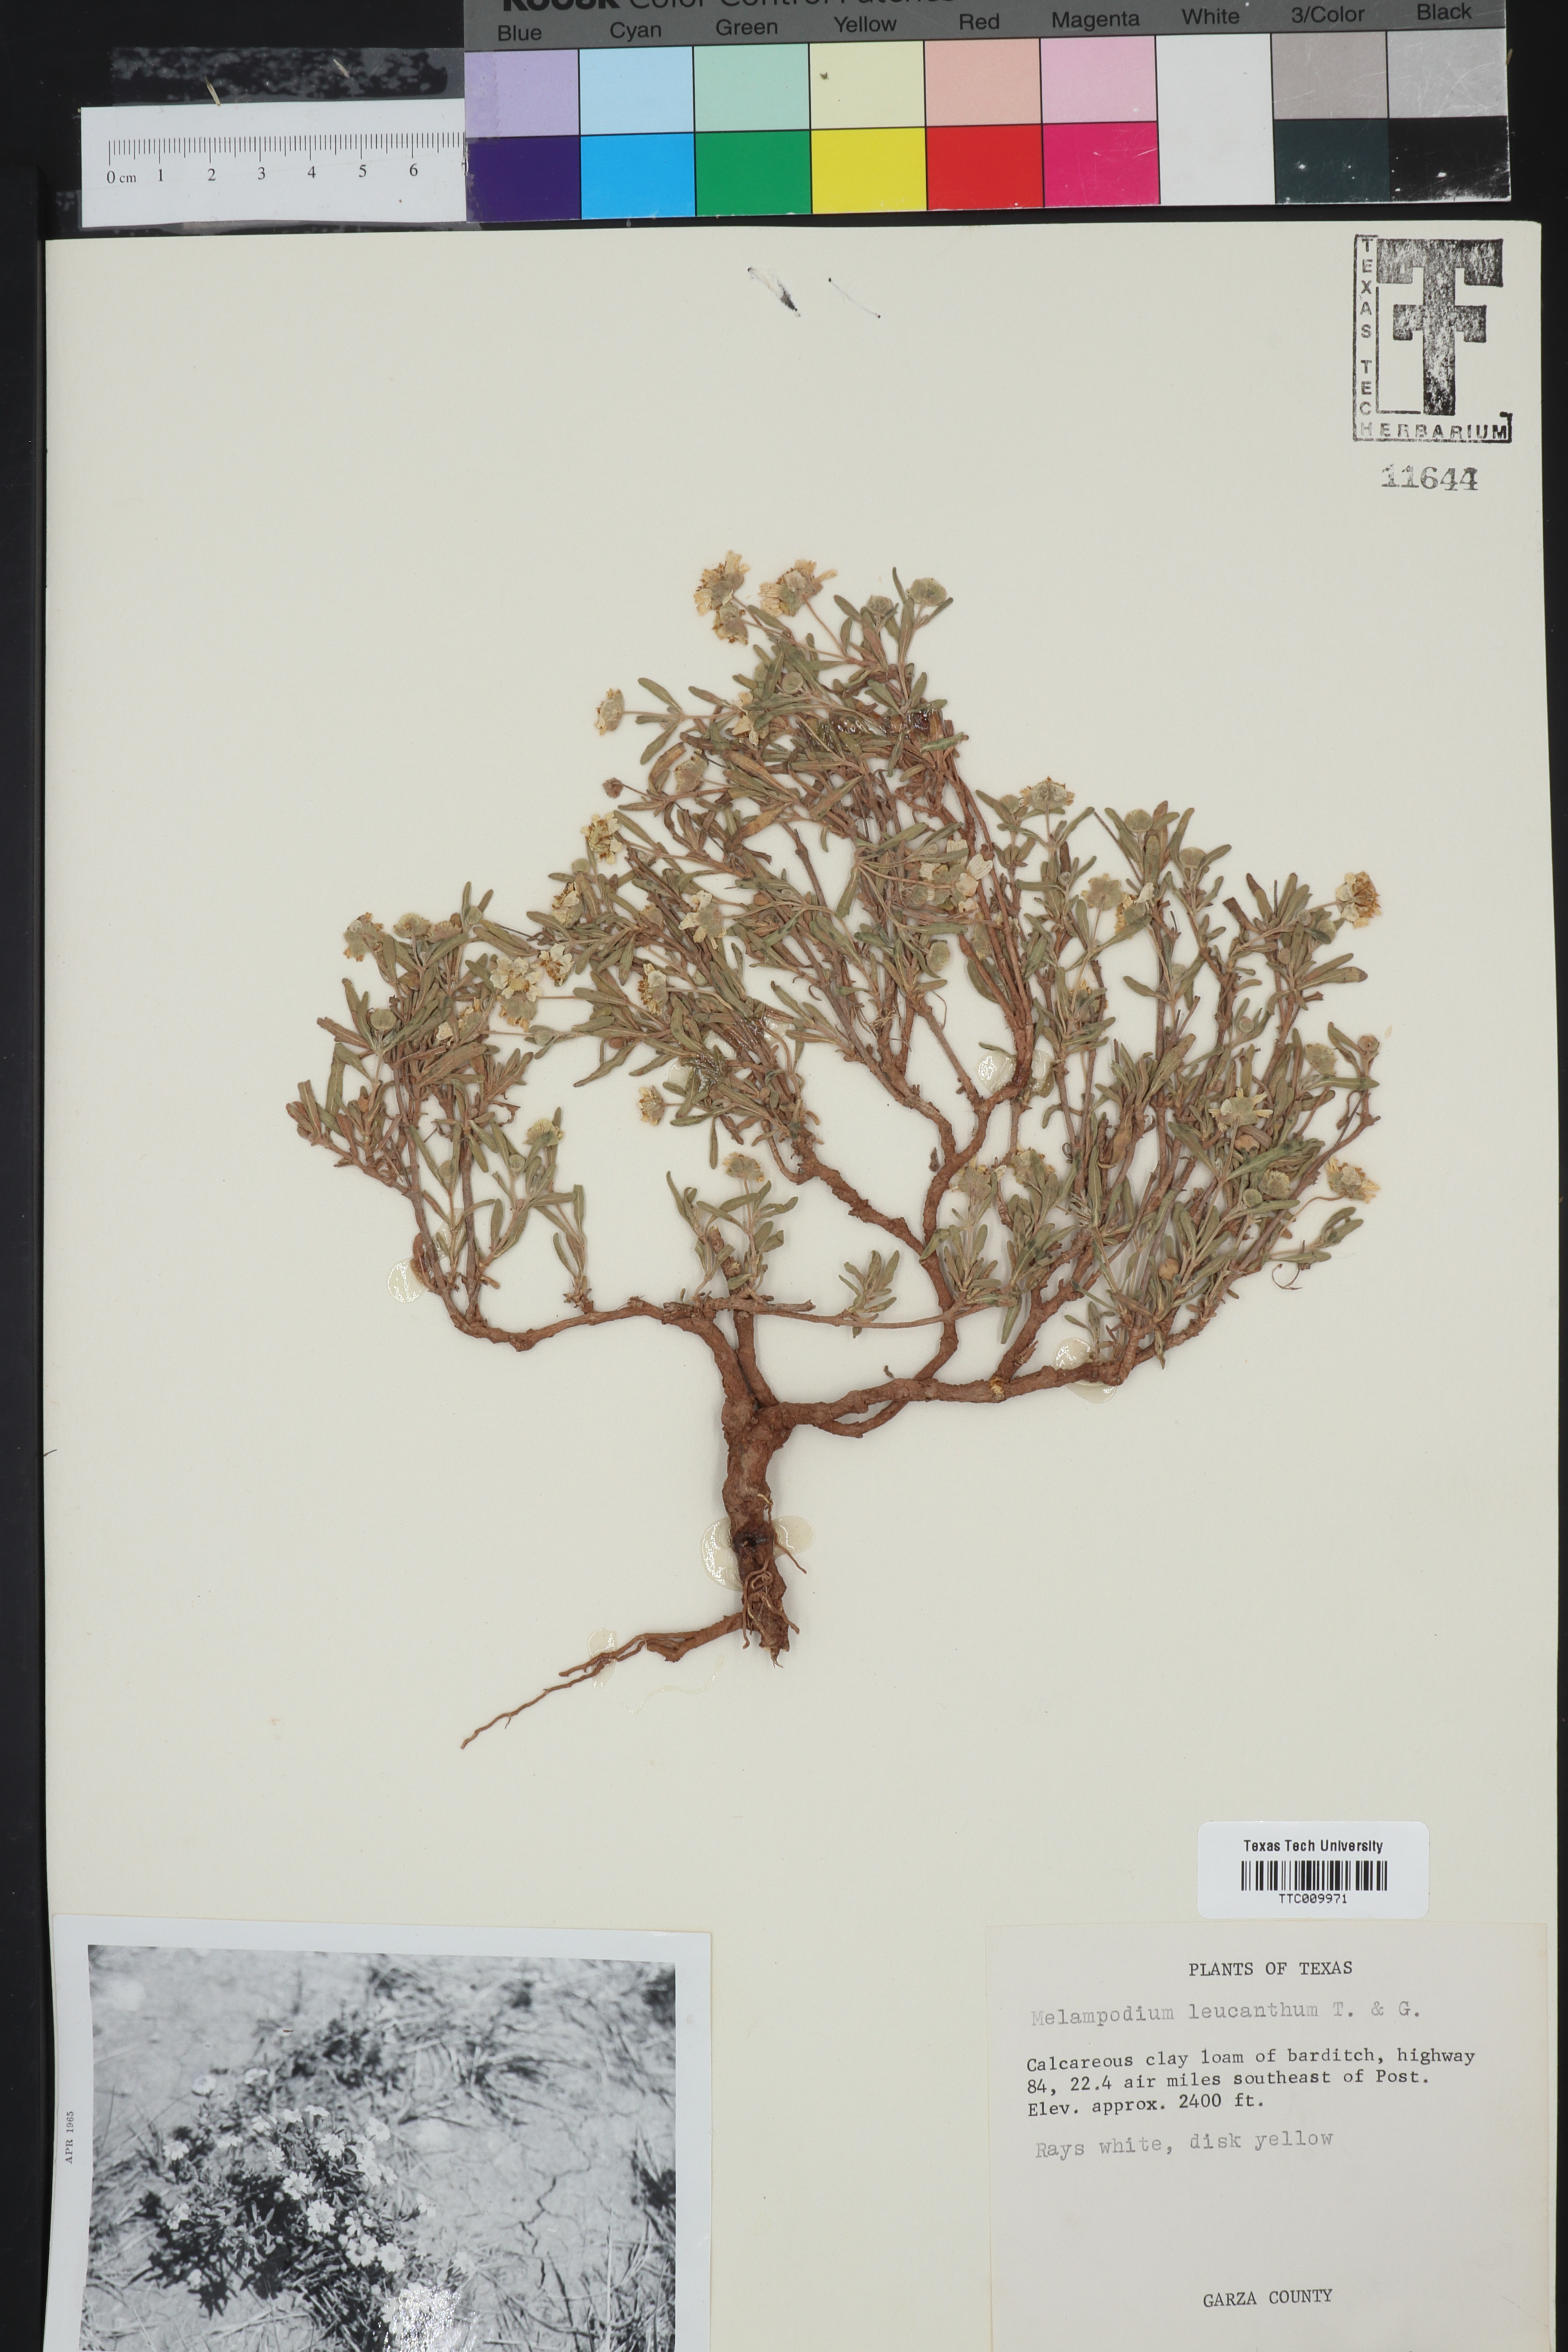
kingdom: Plantae
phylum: Tracheophyta
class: Magnoliopsida
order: Asterales
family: Asteraceae
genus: Melampodium
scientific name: Melampodium leucanthum
